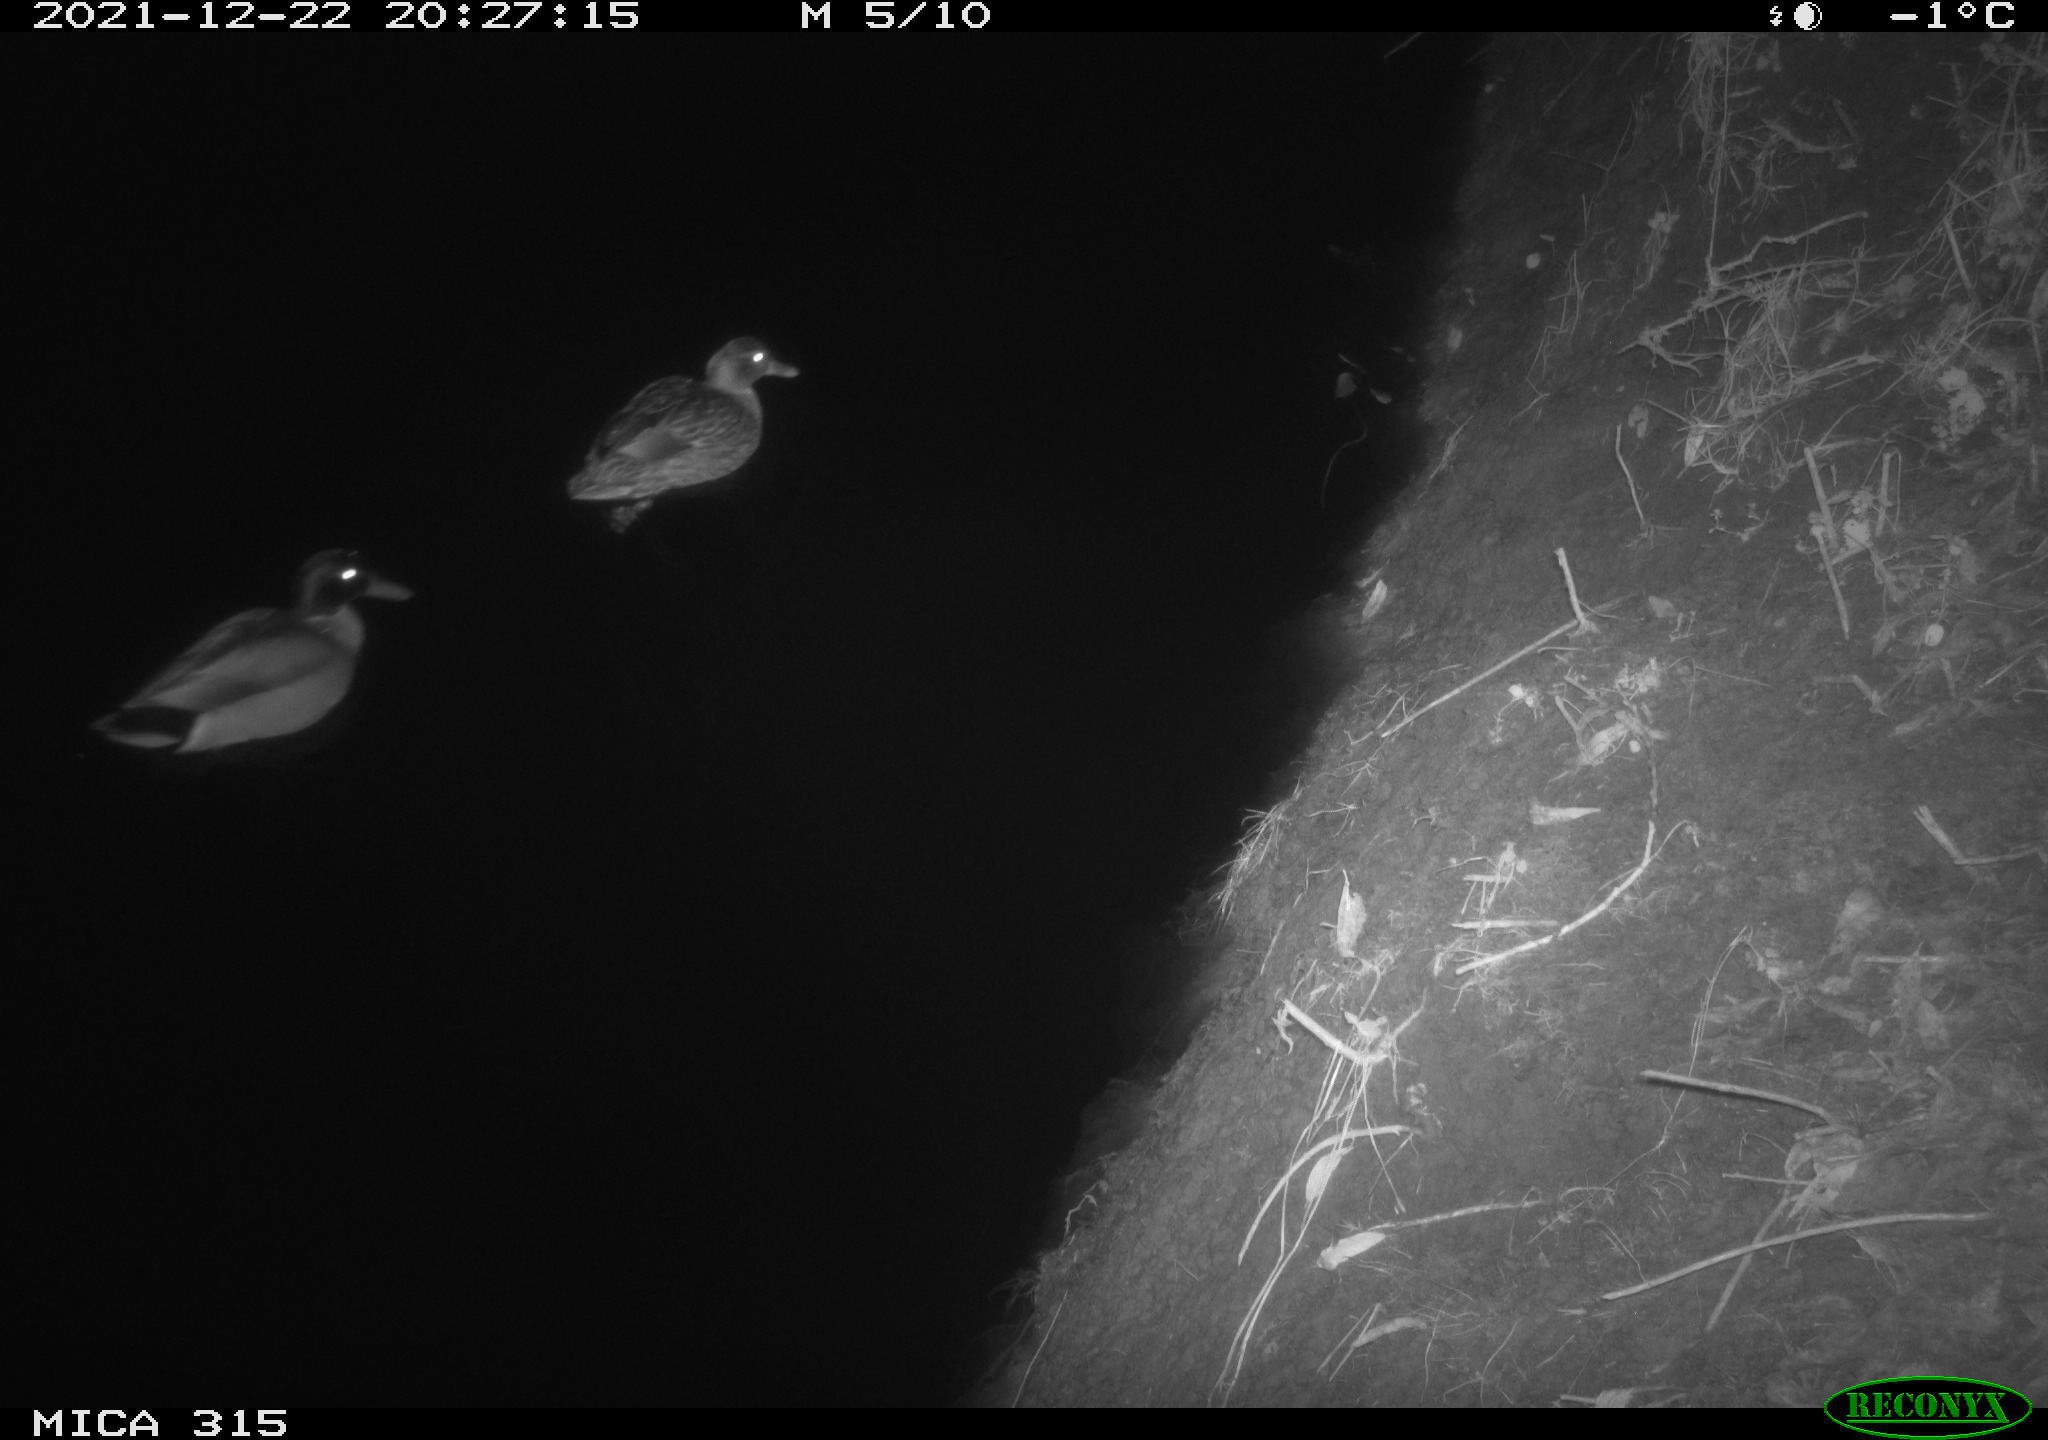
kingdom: Animalia
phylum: Chordata
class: Aves
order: Anseriformes
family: Anatidae
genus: Anas
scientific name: Anas
